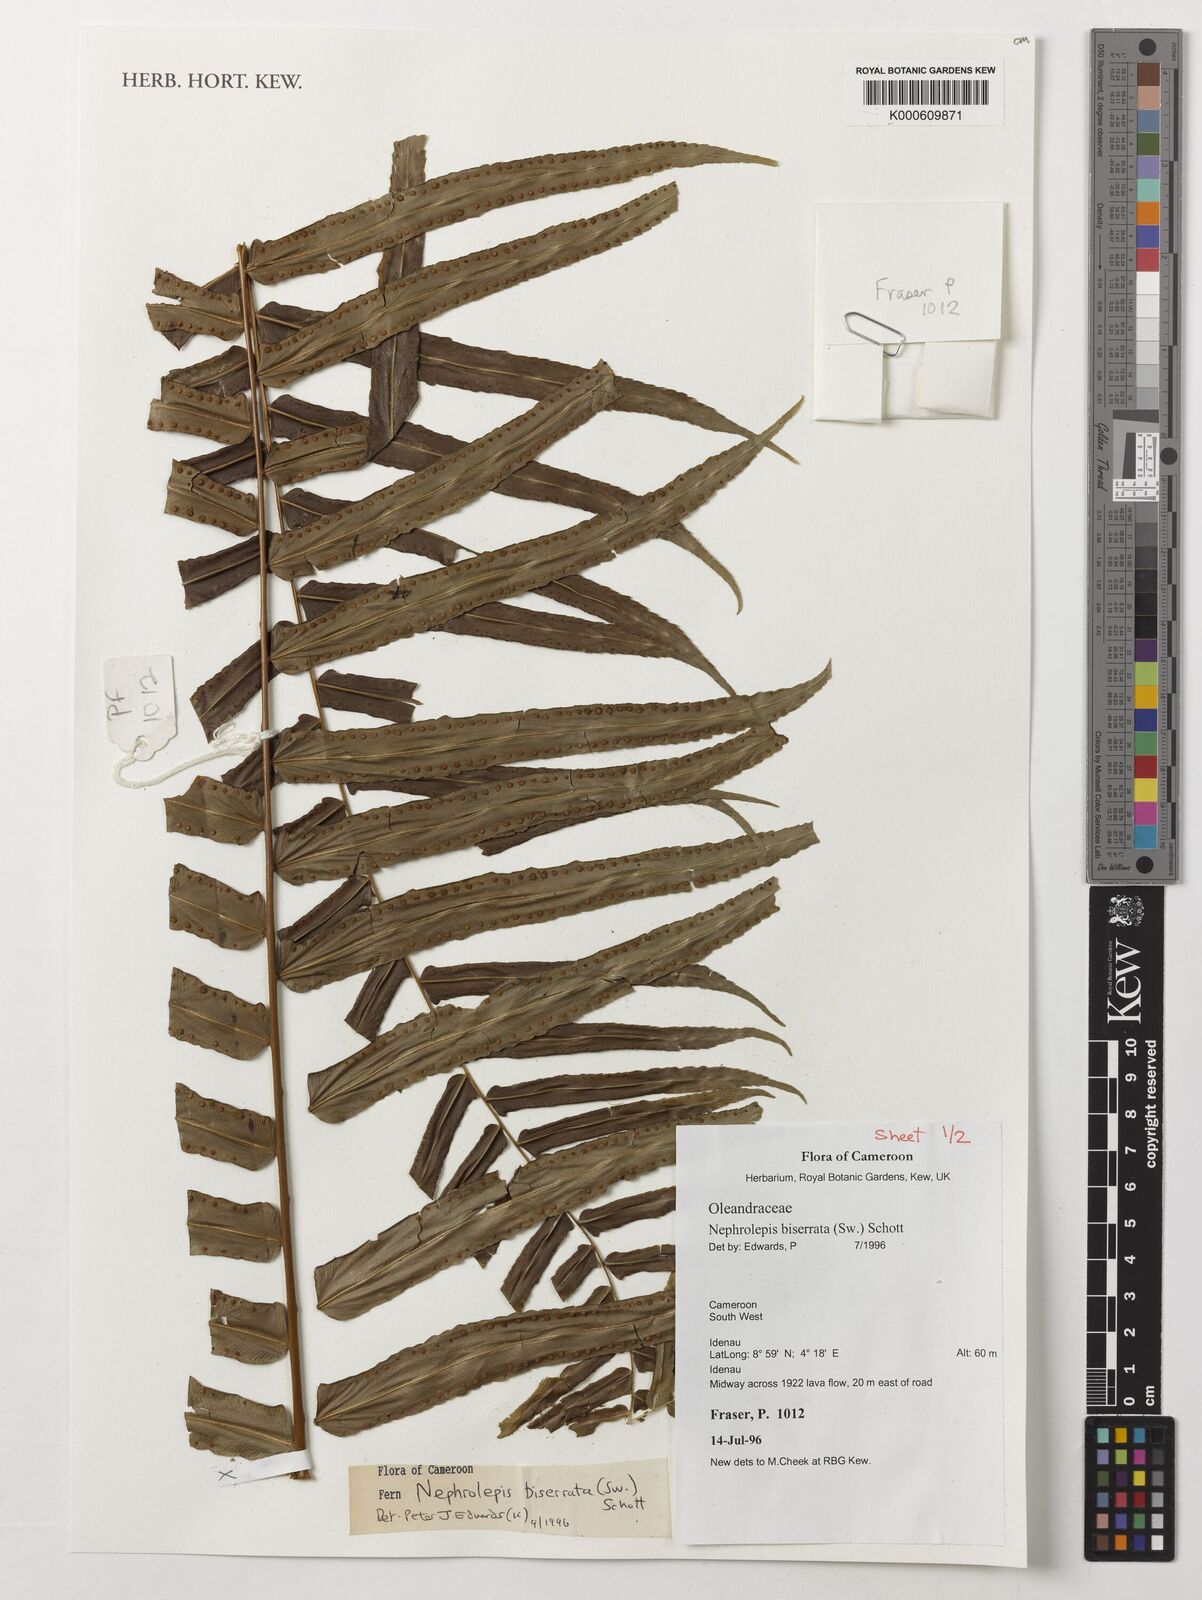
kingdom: Plantae
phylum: Tracheophyta
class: Polypodiopsida
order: Polypodiales
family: Nephrolepidaceae
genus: Nephrolepis
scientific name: Nephrolepis biserrata
